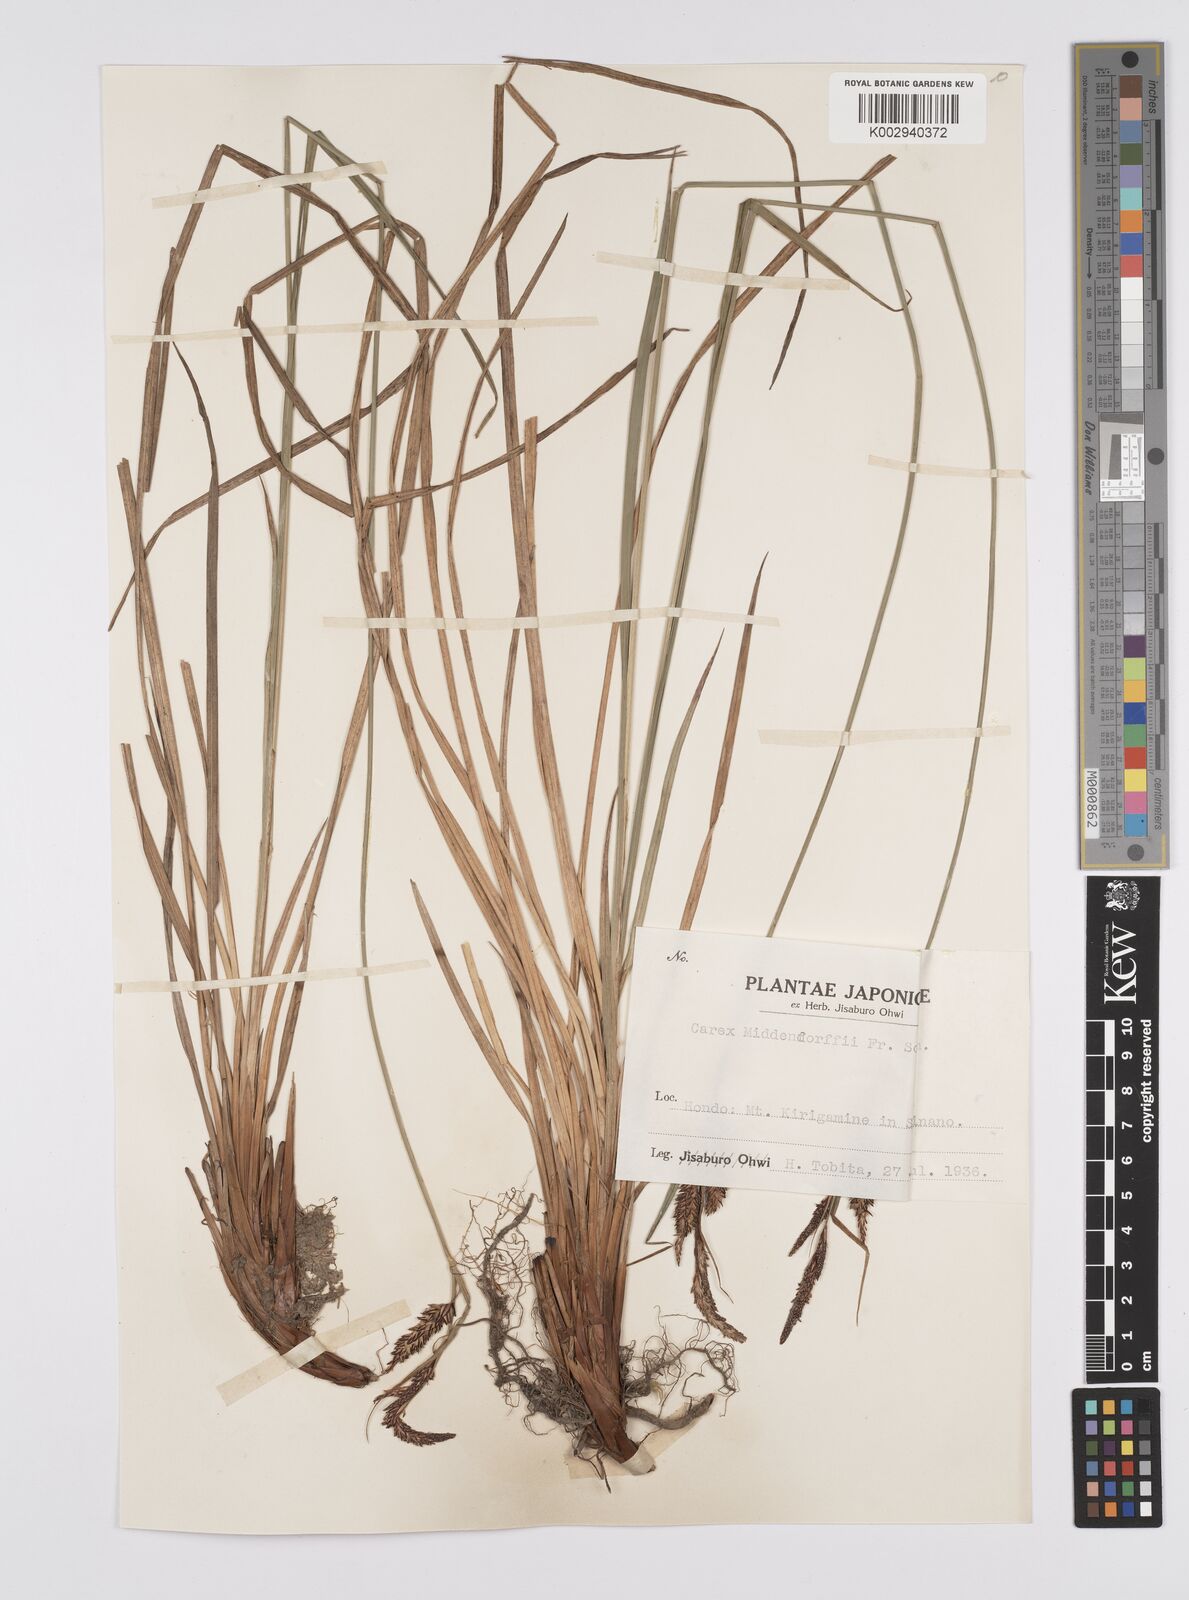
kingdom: Plantae
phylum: Tracheophyta
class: Liliopsida
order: Poales
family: Cyperaceae
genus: Carex
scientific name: Carex middendorffii
